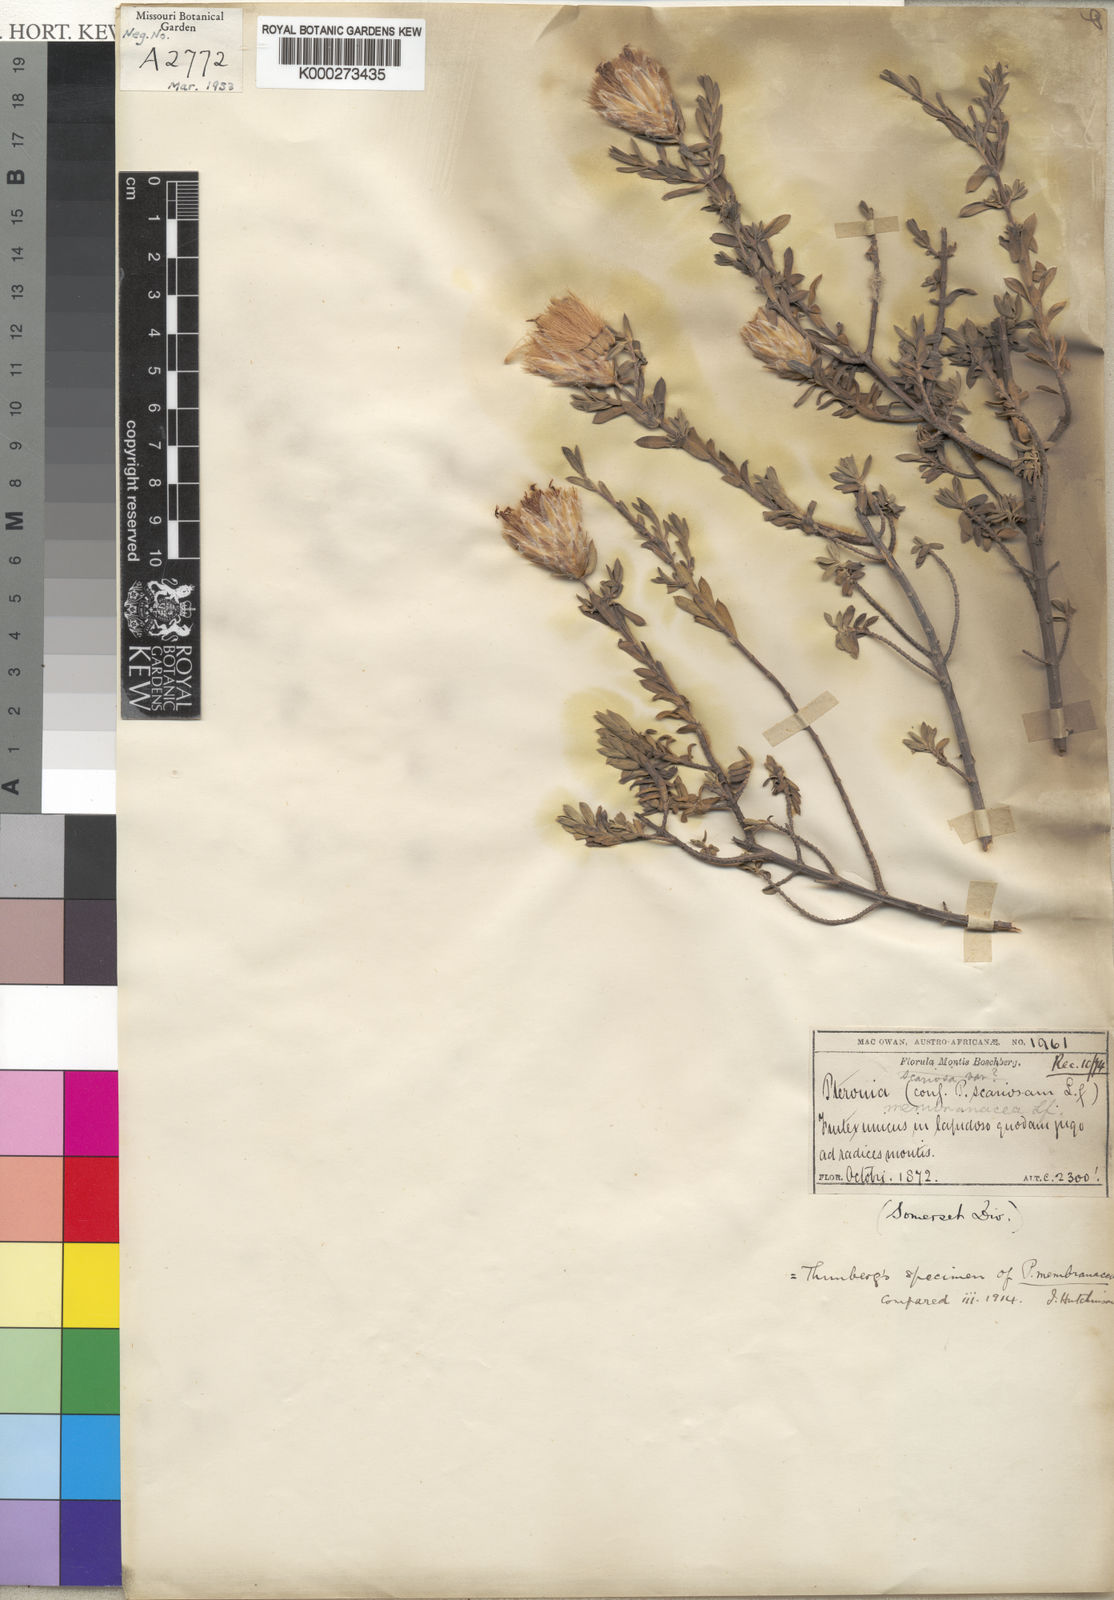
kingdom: Plantae
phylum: Tracheophyta
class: Magnoliopsida
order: Asterales
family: Asteraceae
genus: Pteronia
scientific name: Pteronia membranacea
